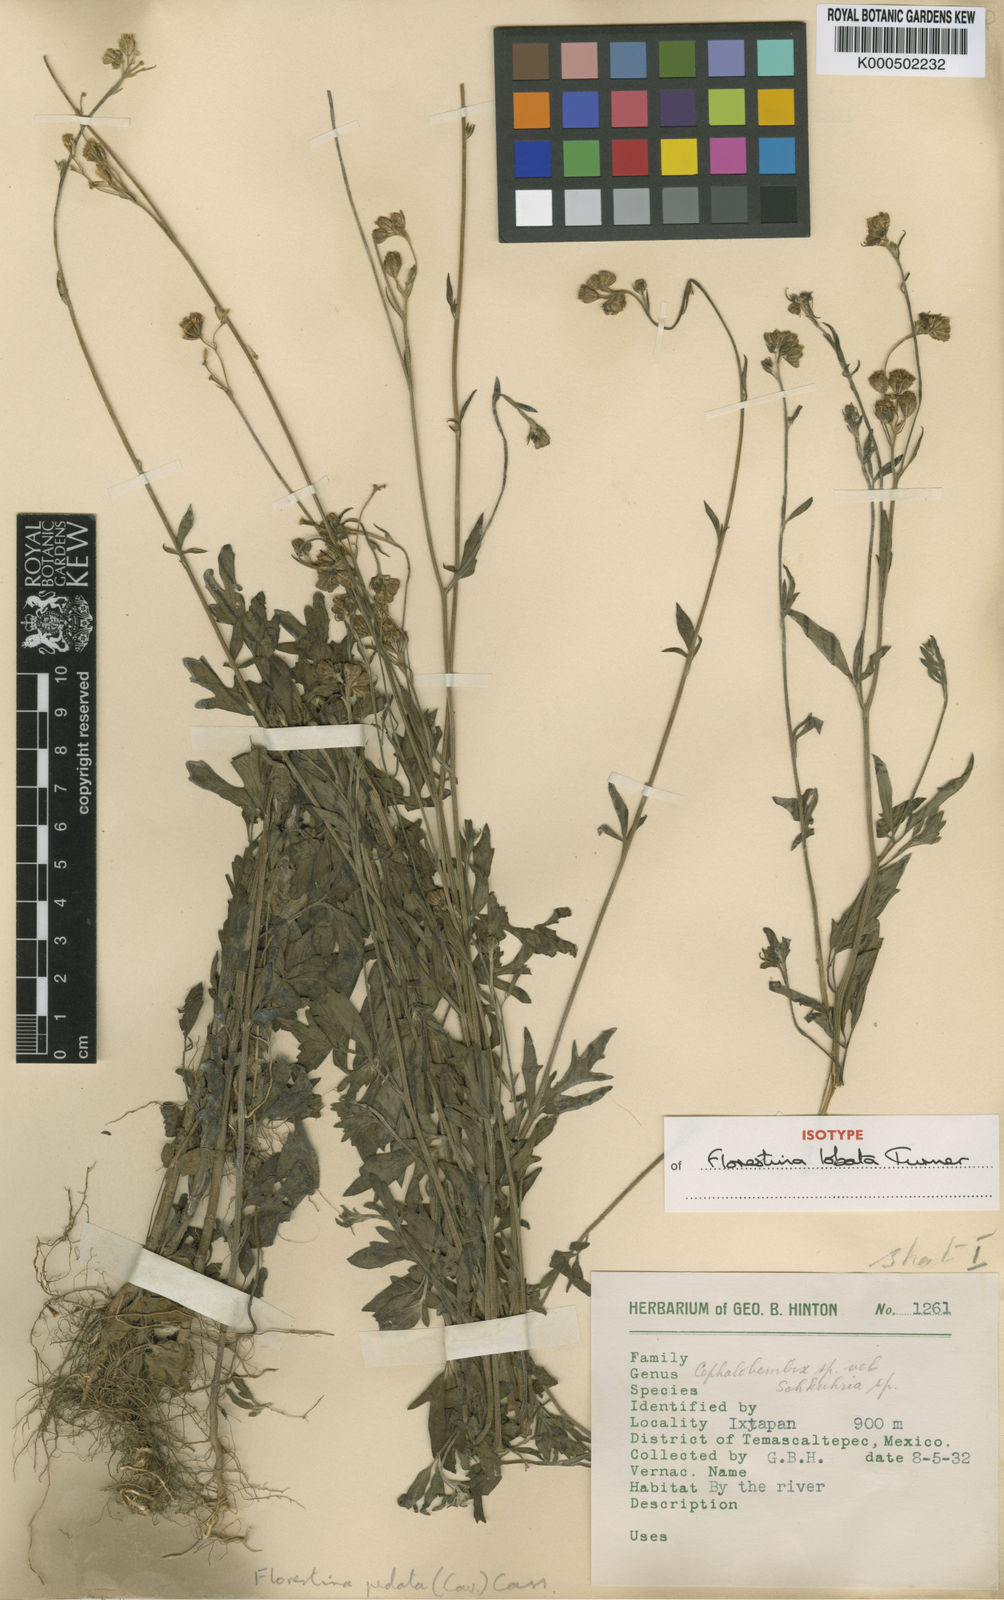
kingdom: Plantae
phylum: Tracheophyta
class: Magnoliopsida
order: Asterales
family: Asteraceae
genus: Florestina
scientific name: Florestina lobata
